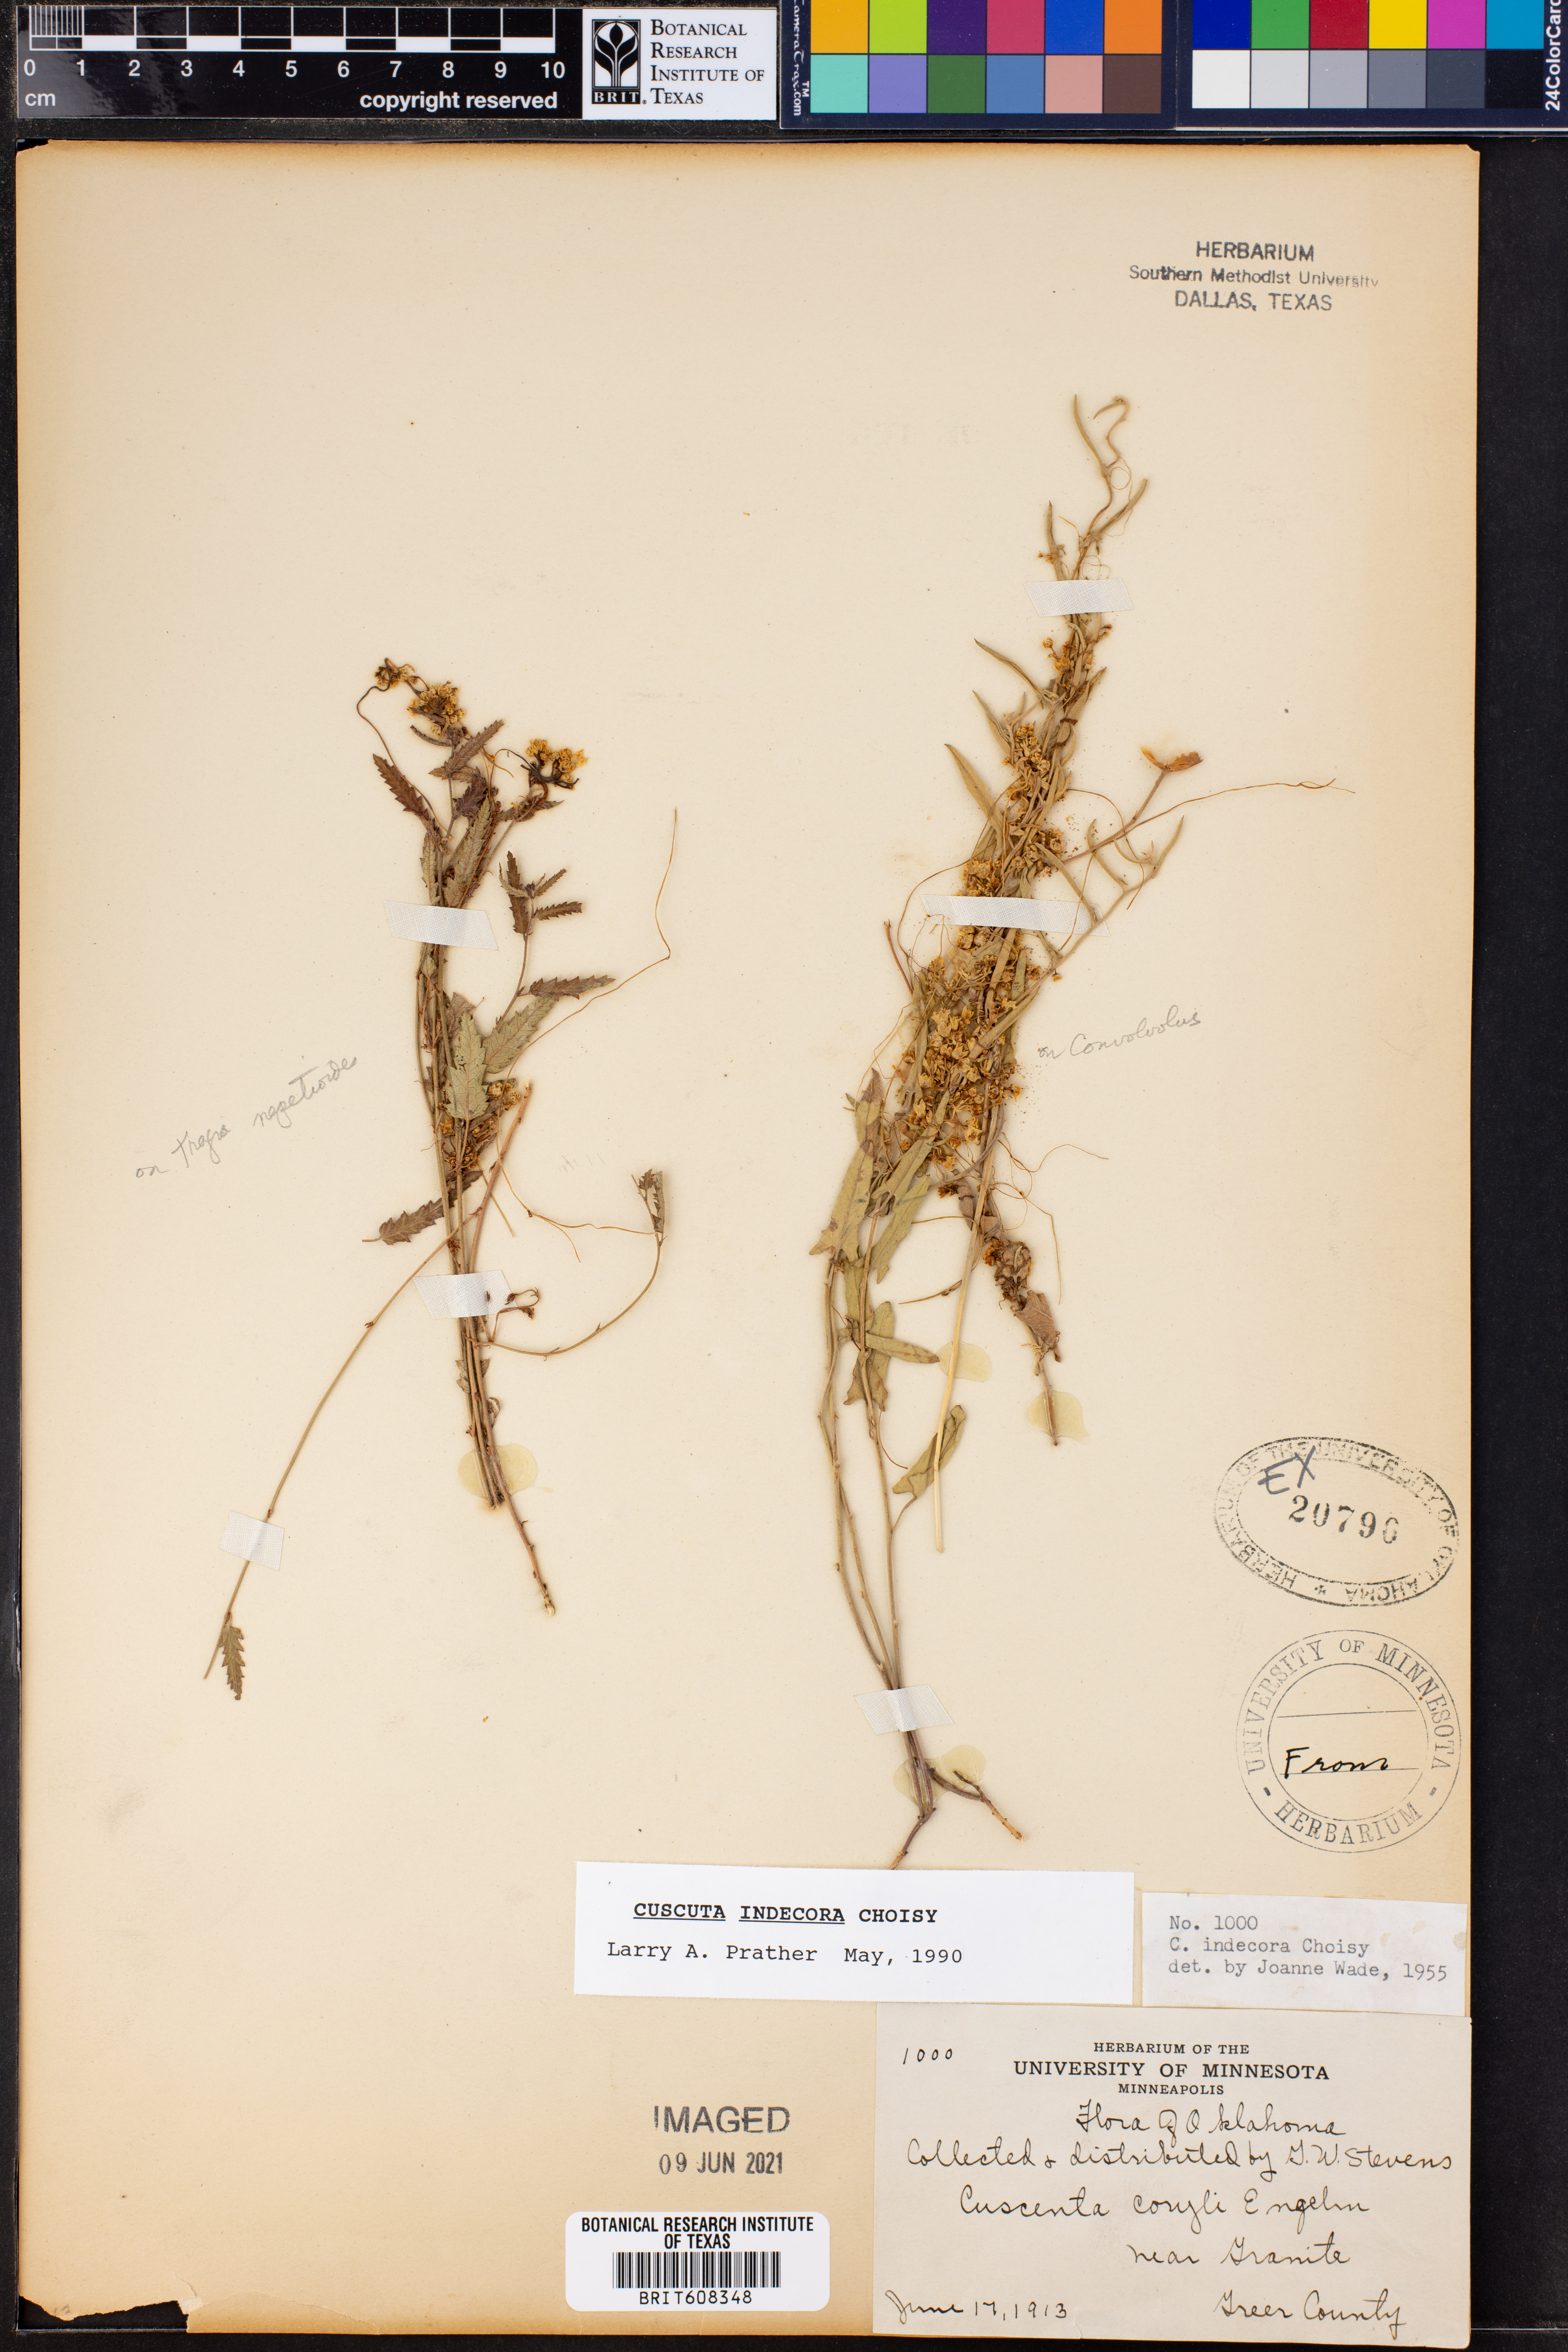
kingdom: Plantae
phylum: Tracheophyta
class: Magnoliopsida
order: Solanales
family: Convolvulaceae
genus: Cuscuta
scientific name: Cuscuta indecora
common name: Large-seed dodder
